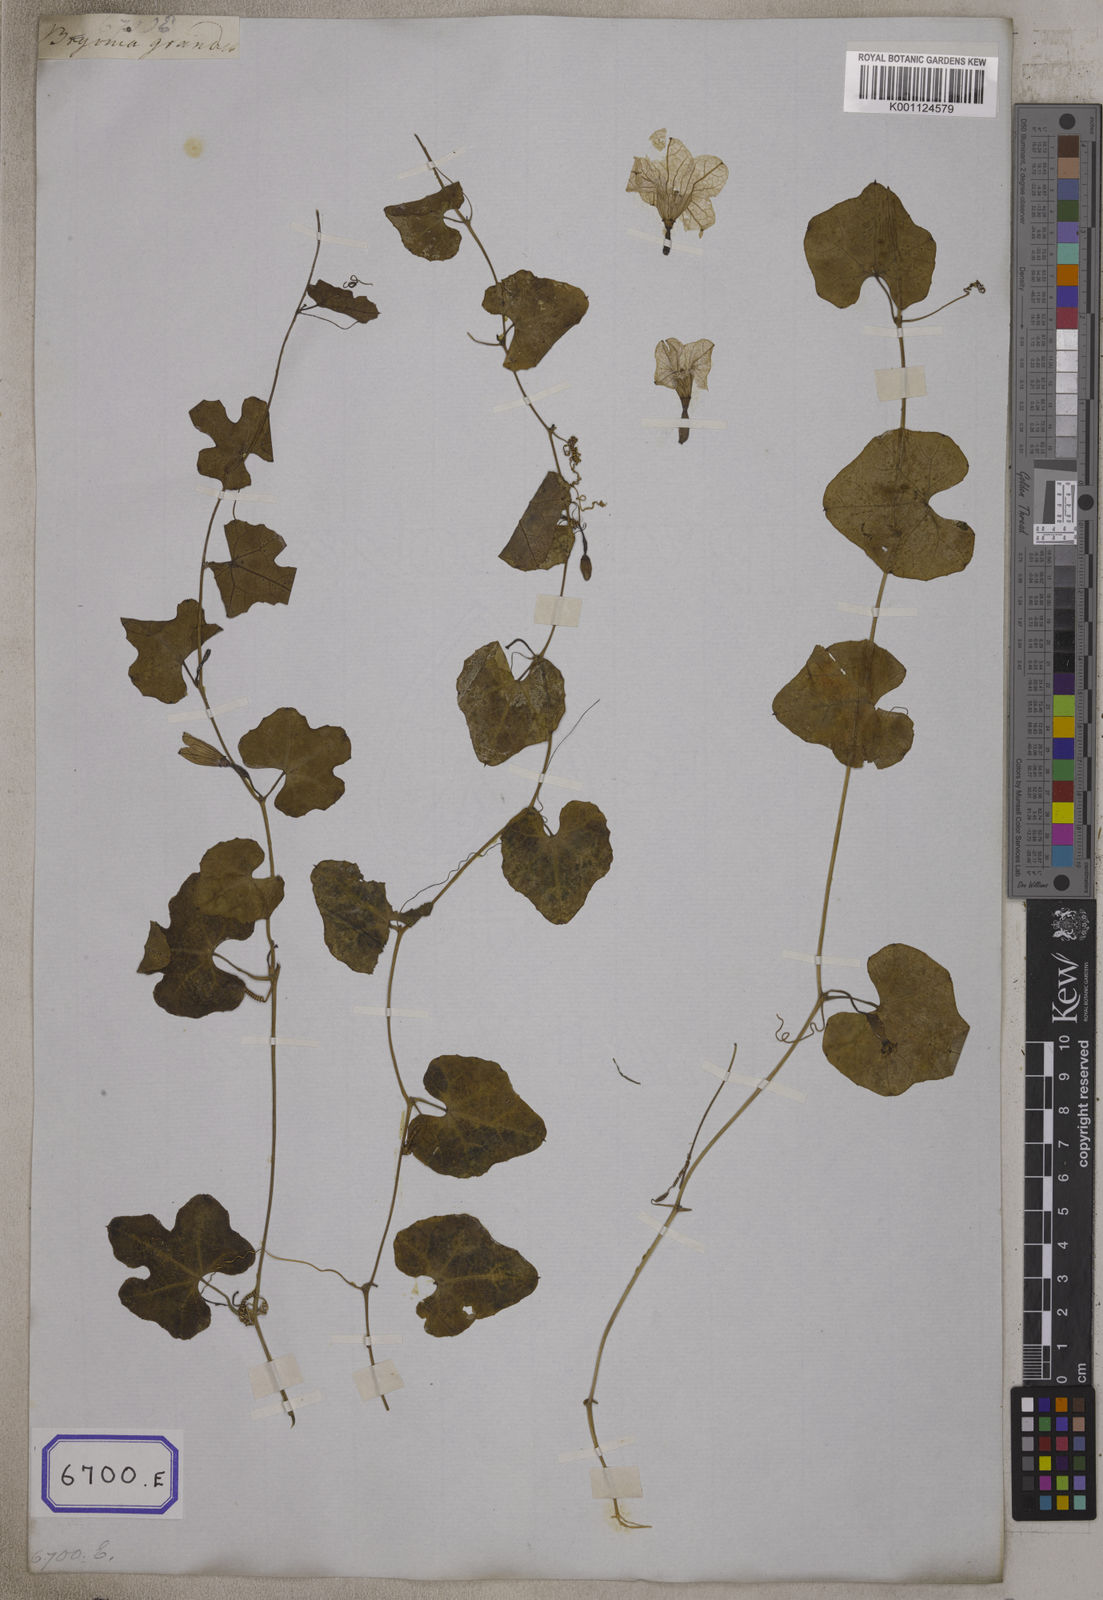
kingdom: Plantae
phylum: Tracheophyta
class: Magnoliopsida
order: Cucurbitales
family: Cucurbitaceae
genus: Bryonia
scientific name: Bryonia
